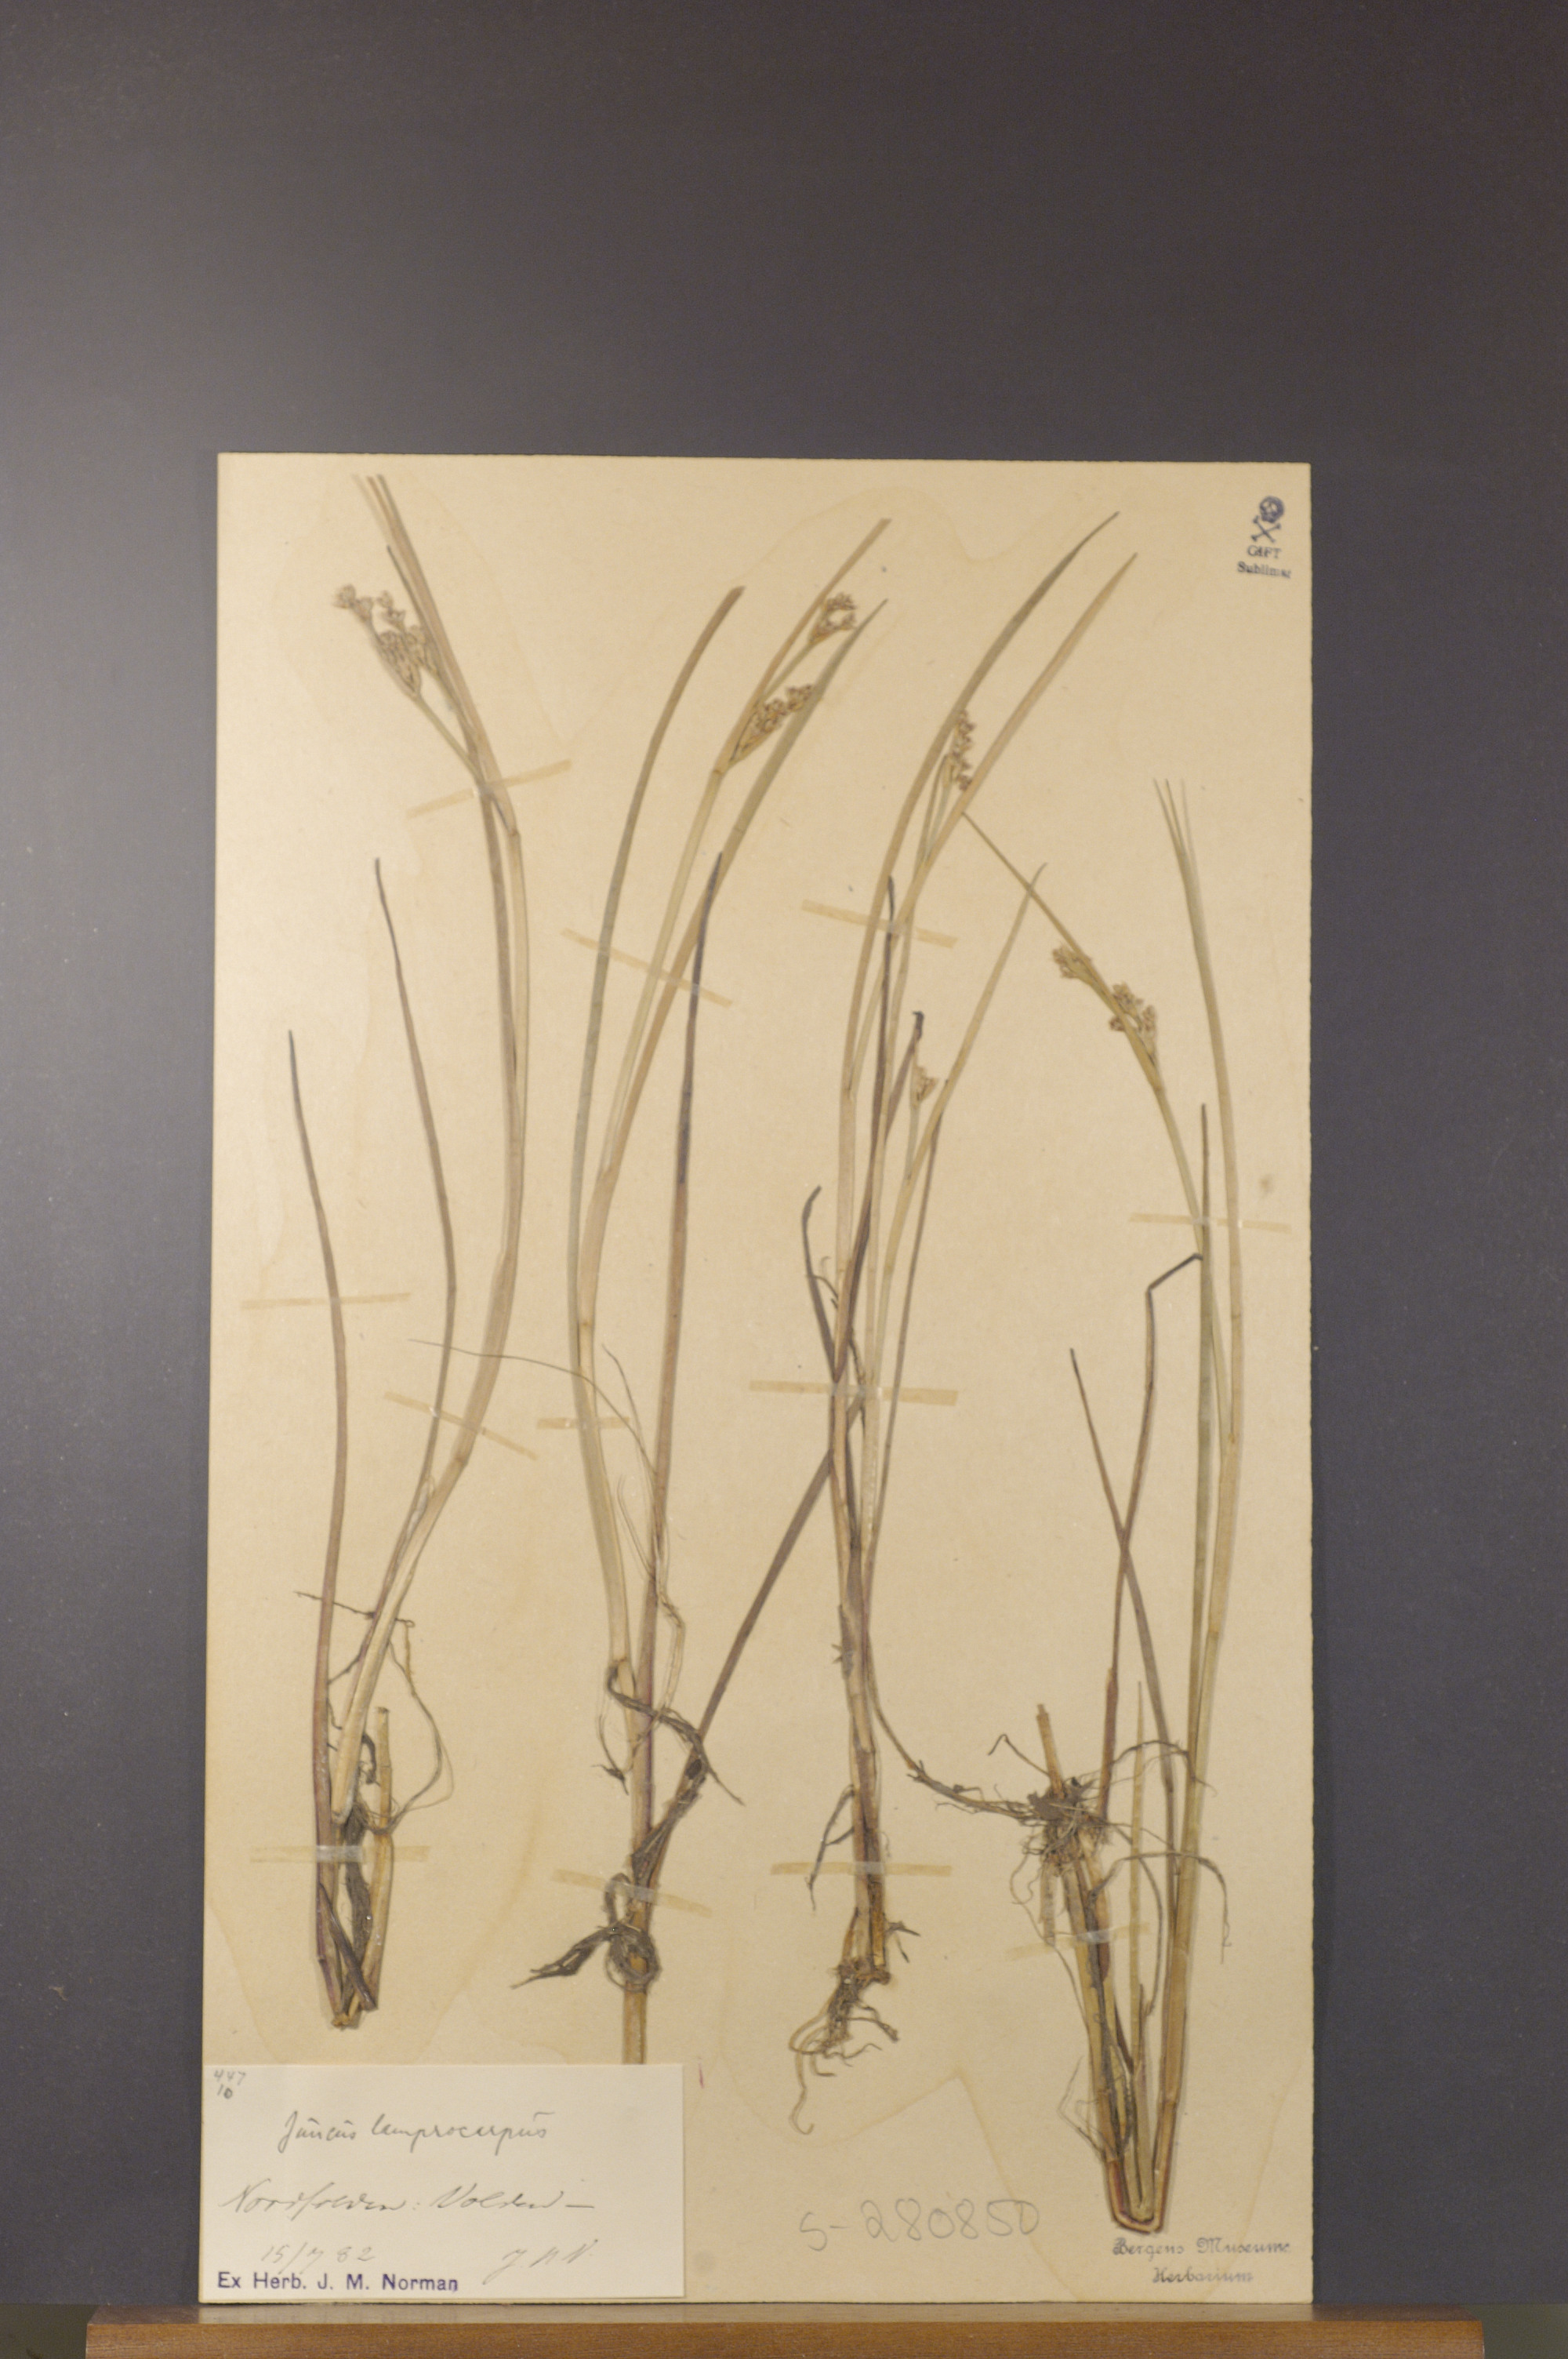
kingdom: Plantae
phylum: Tracheophyta
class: Liliopsida
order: Poales
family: Juncaceae
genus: Juncus
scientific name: Juncus articulatus
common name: Jointed rush
